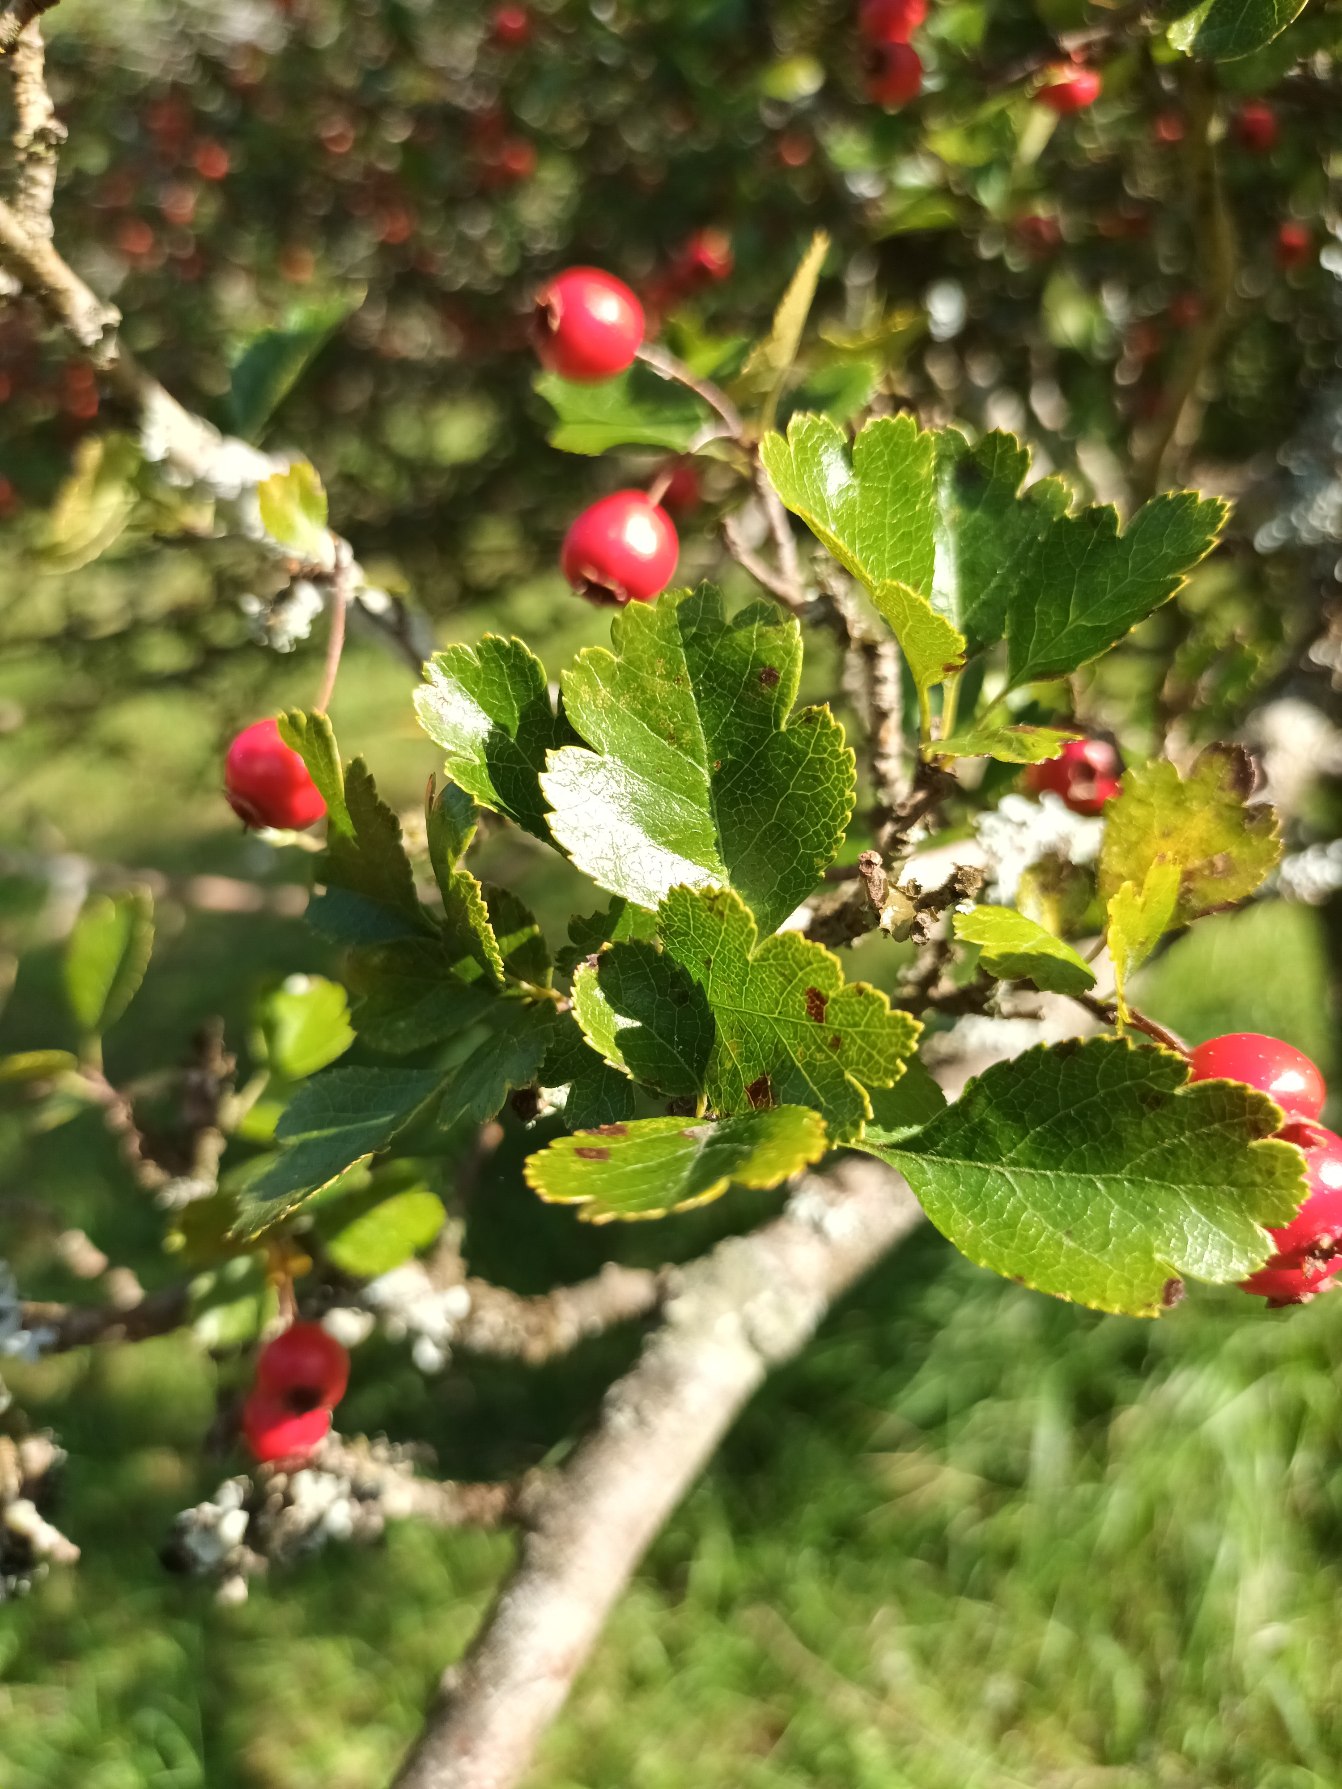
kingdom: Plantae
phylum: Tracheophyta
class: Magnoliopsida
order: Rosales
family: Rosaceae
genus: Crataegus
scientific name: Crataegus laevigata
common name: Almindelig hvidtjørn
